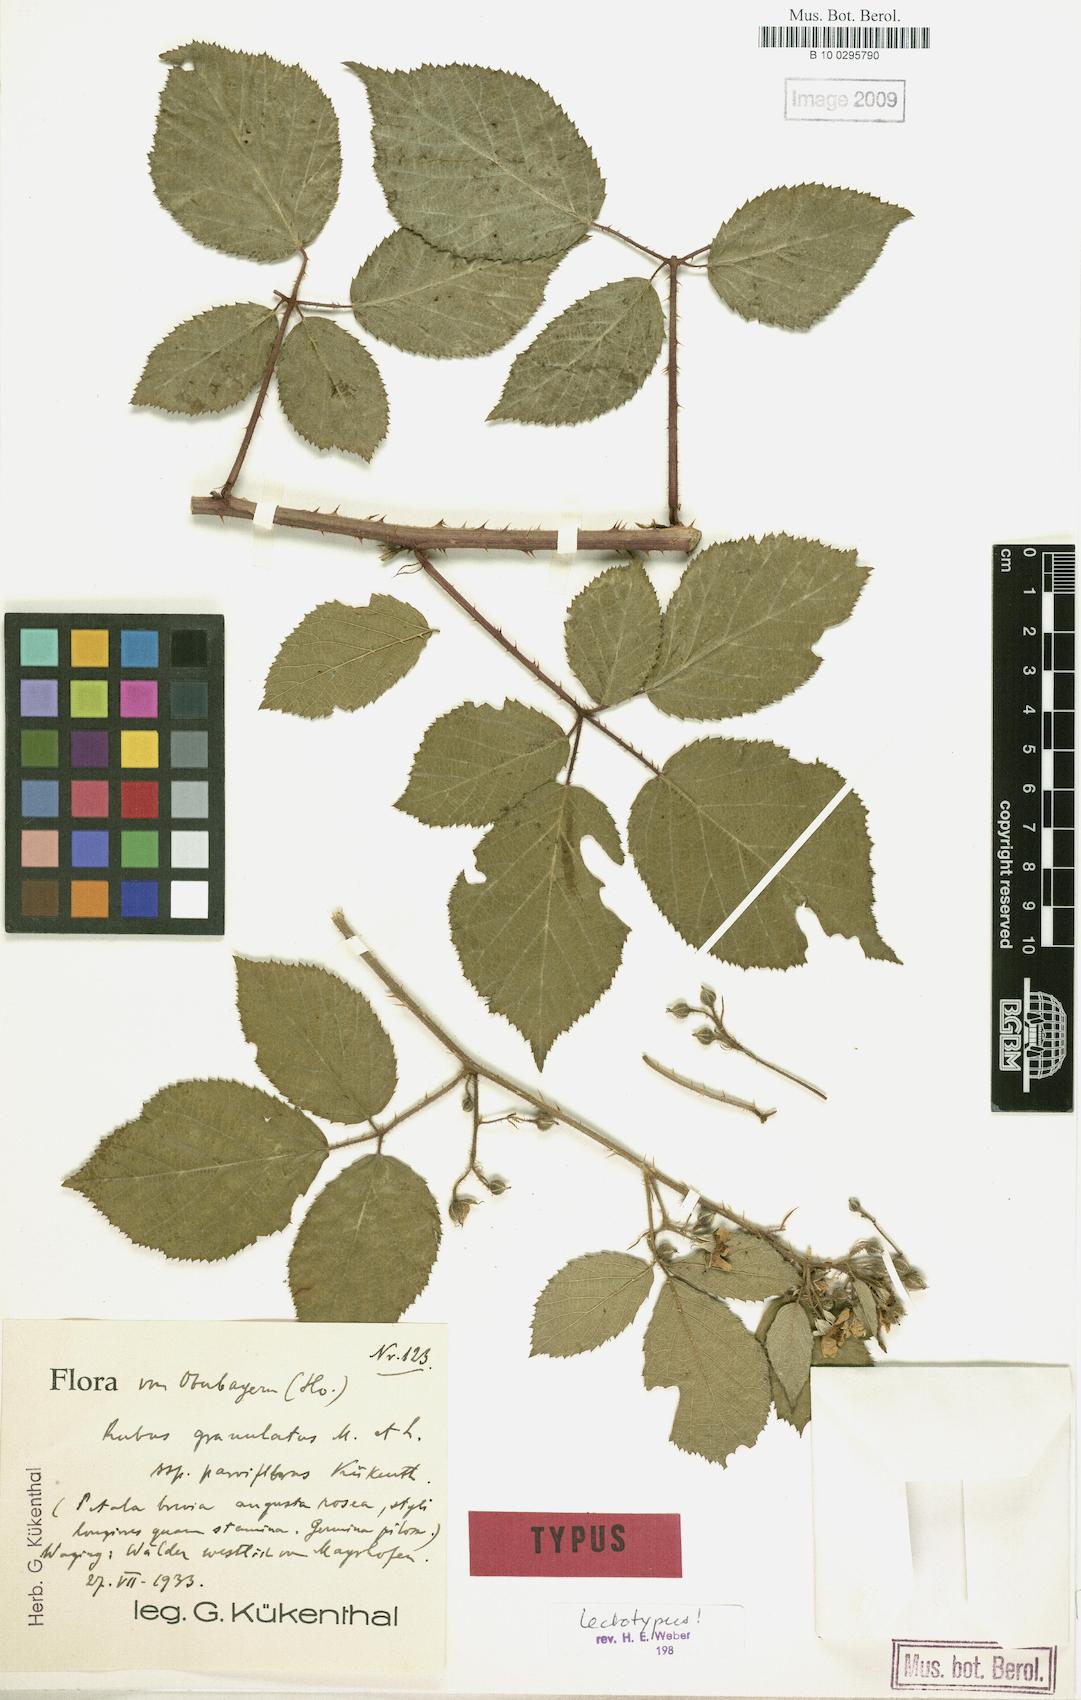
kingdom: Plantae
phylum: Tracheophyta
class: Magnoliopsida
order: Rosales
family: Rosaceae
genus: Rubus
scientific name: Rubus granulatus
